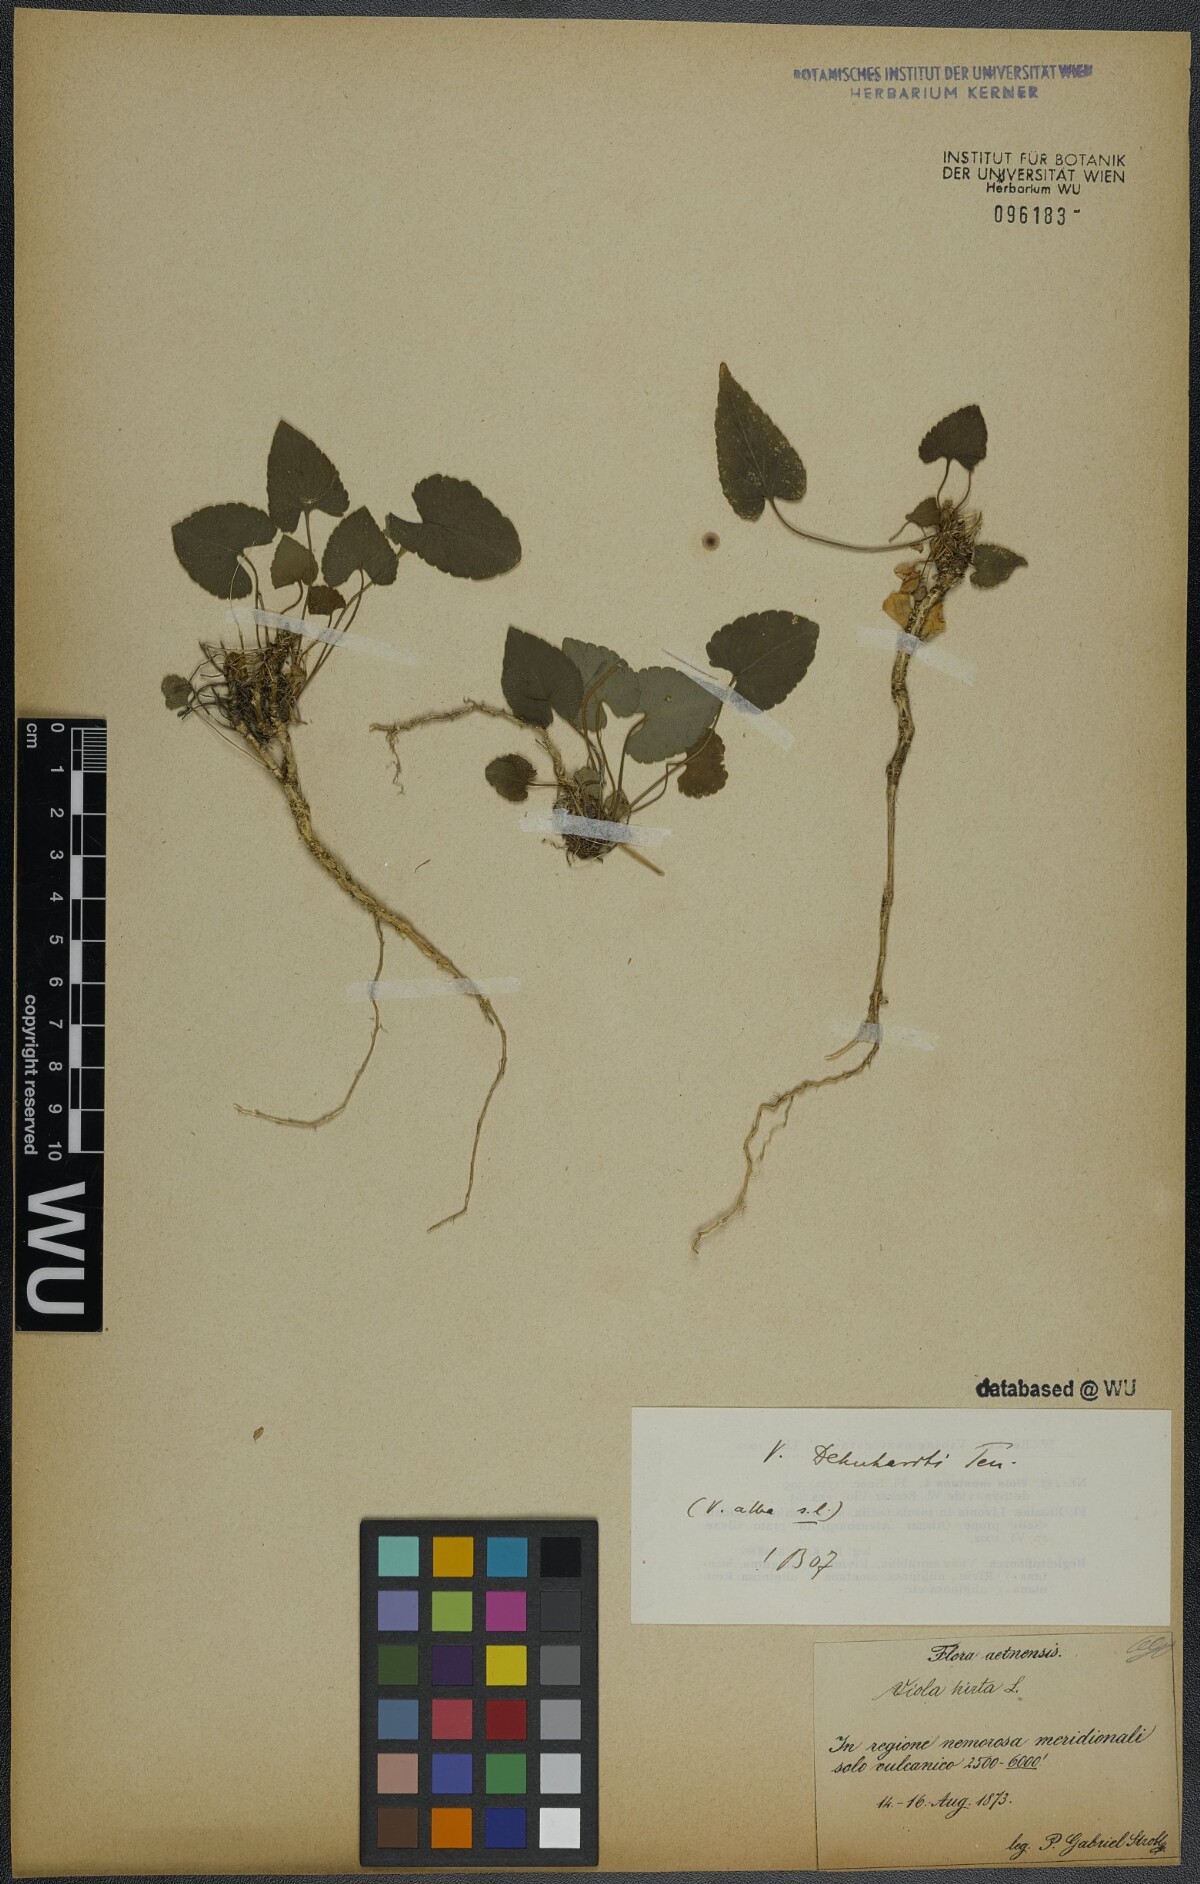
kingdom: Plantae
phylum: Tracheophyta
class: Magnoliopsida
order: Malpighiales
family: Violaceae
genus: Viola
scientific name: Viola alba
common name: White violet
